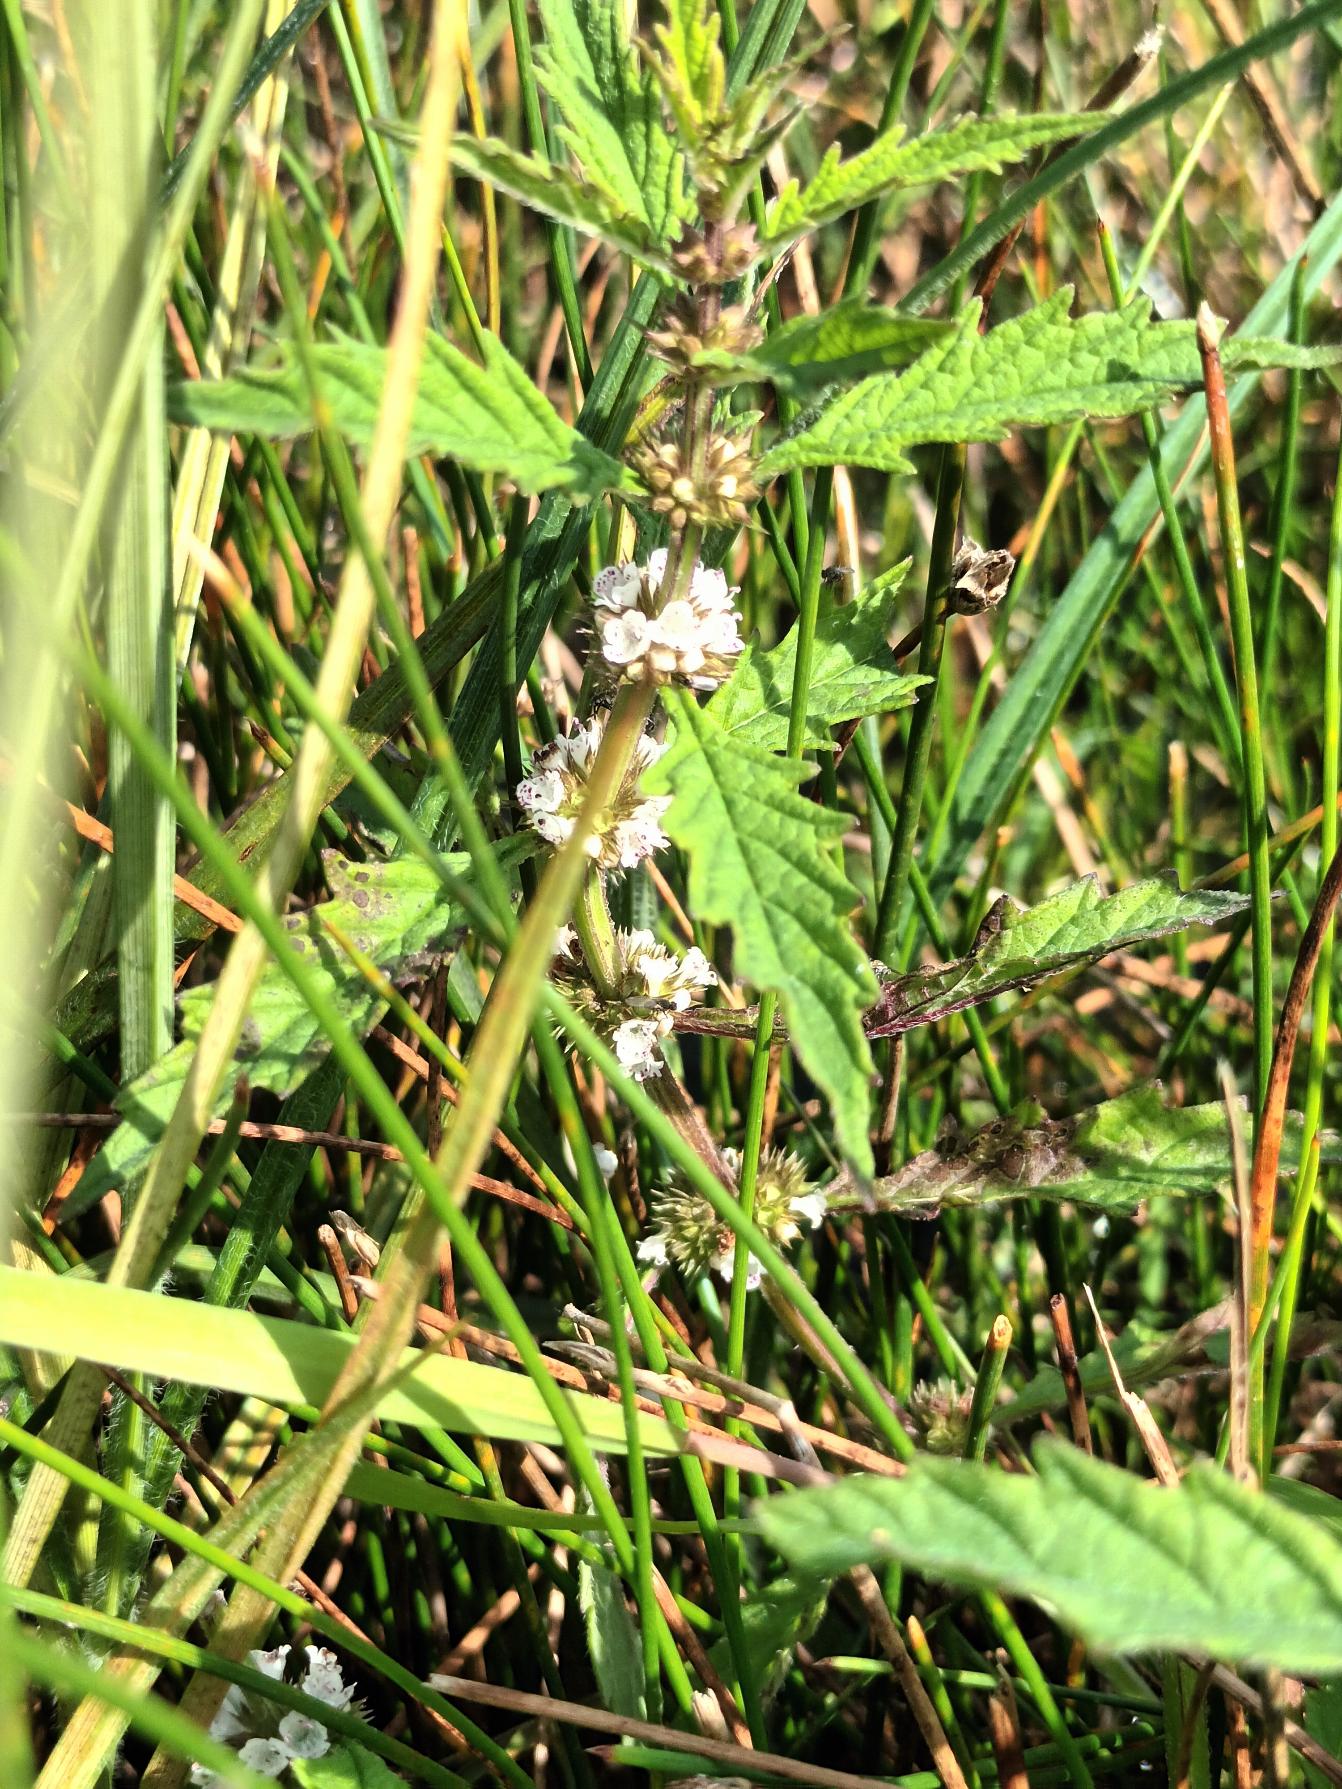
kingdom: Plantae
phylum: Tracheophyta
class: Magnoliopsida
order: Lamiales
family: Lamiaceae
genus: Lycopus
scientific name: Lycopus europaeus
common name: Sværtevæld
